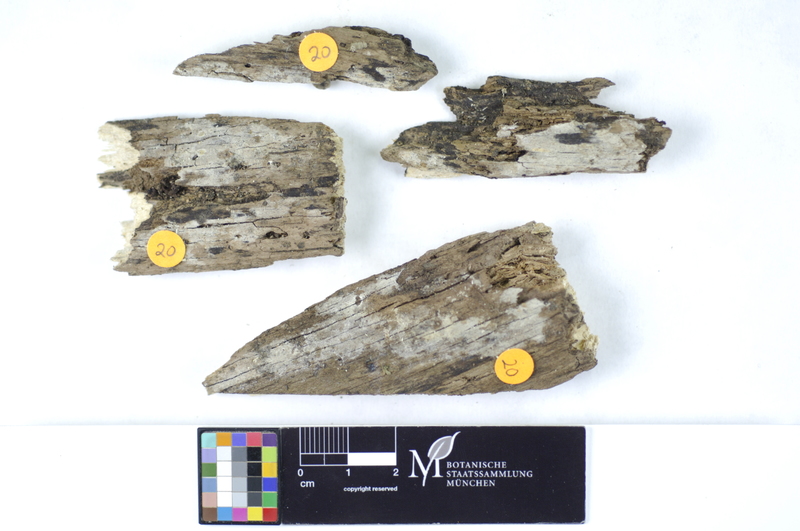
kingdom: Fungi
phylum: Basidiomycota
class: Agaricomycetes
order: Hymenochaetales
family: Rickenellaceae
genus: Peniophorella
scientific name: Peniophorella praetermissa
